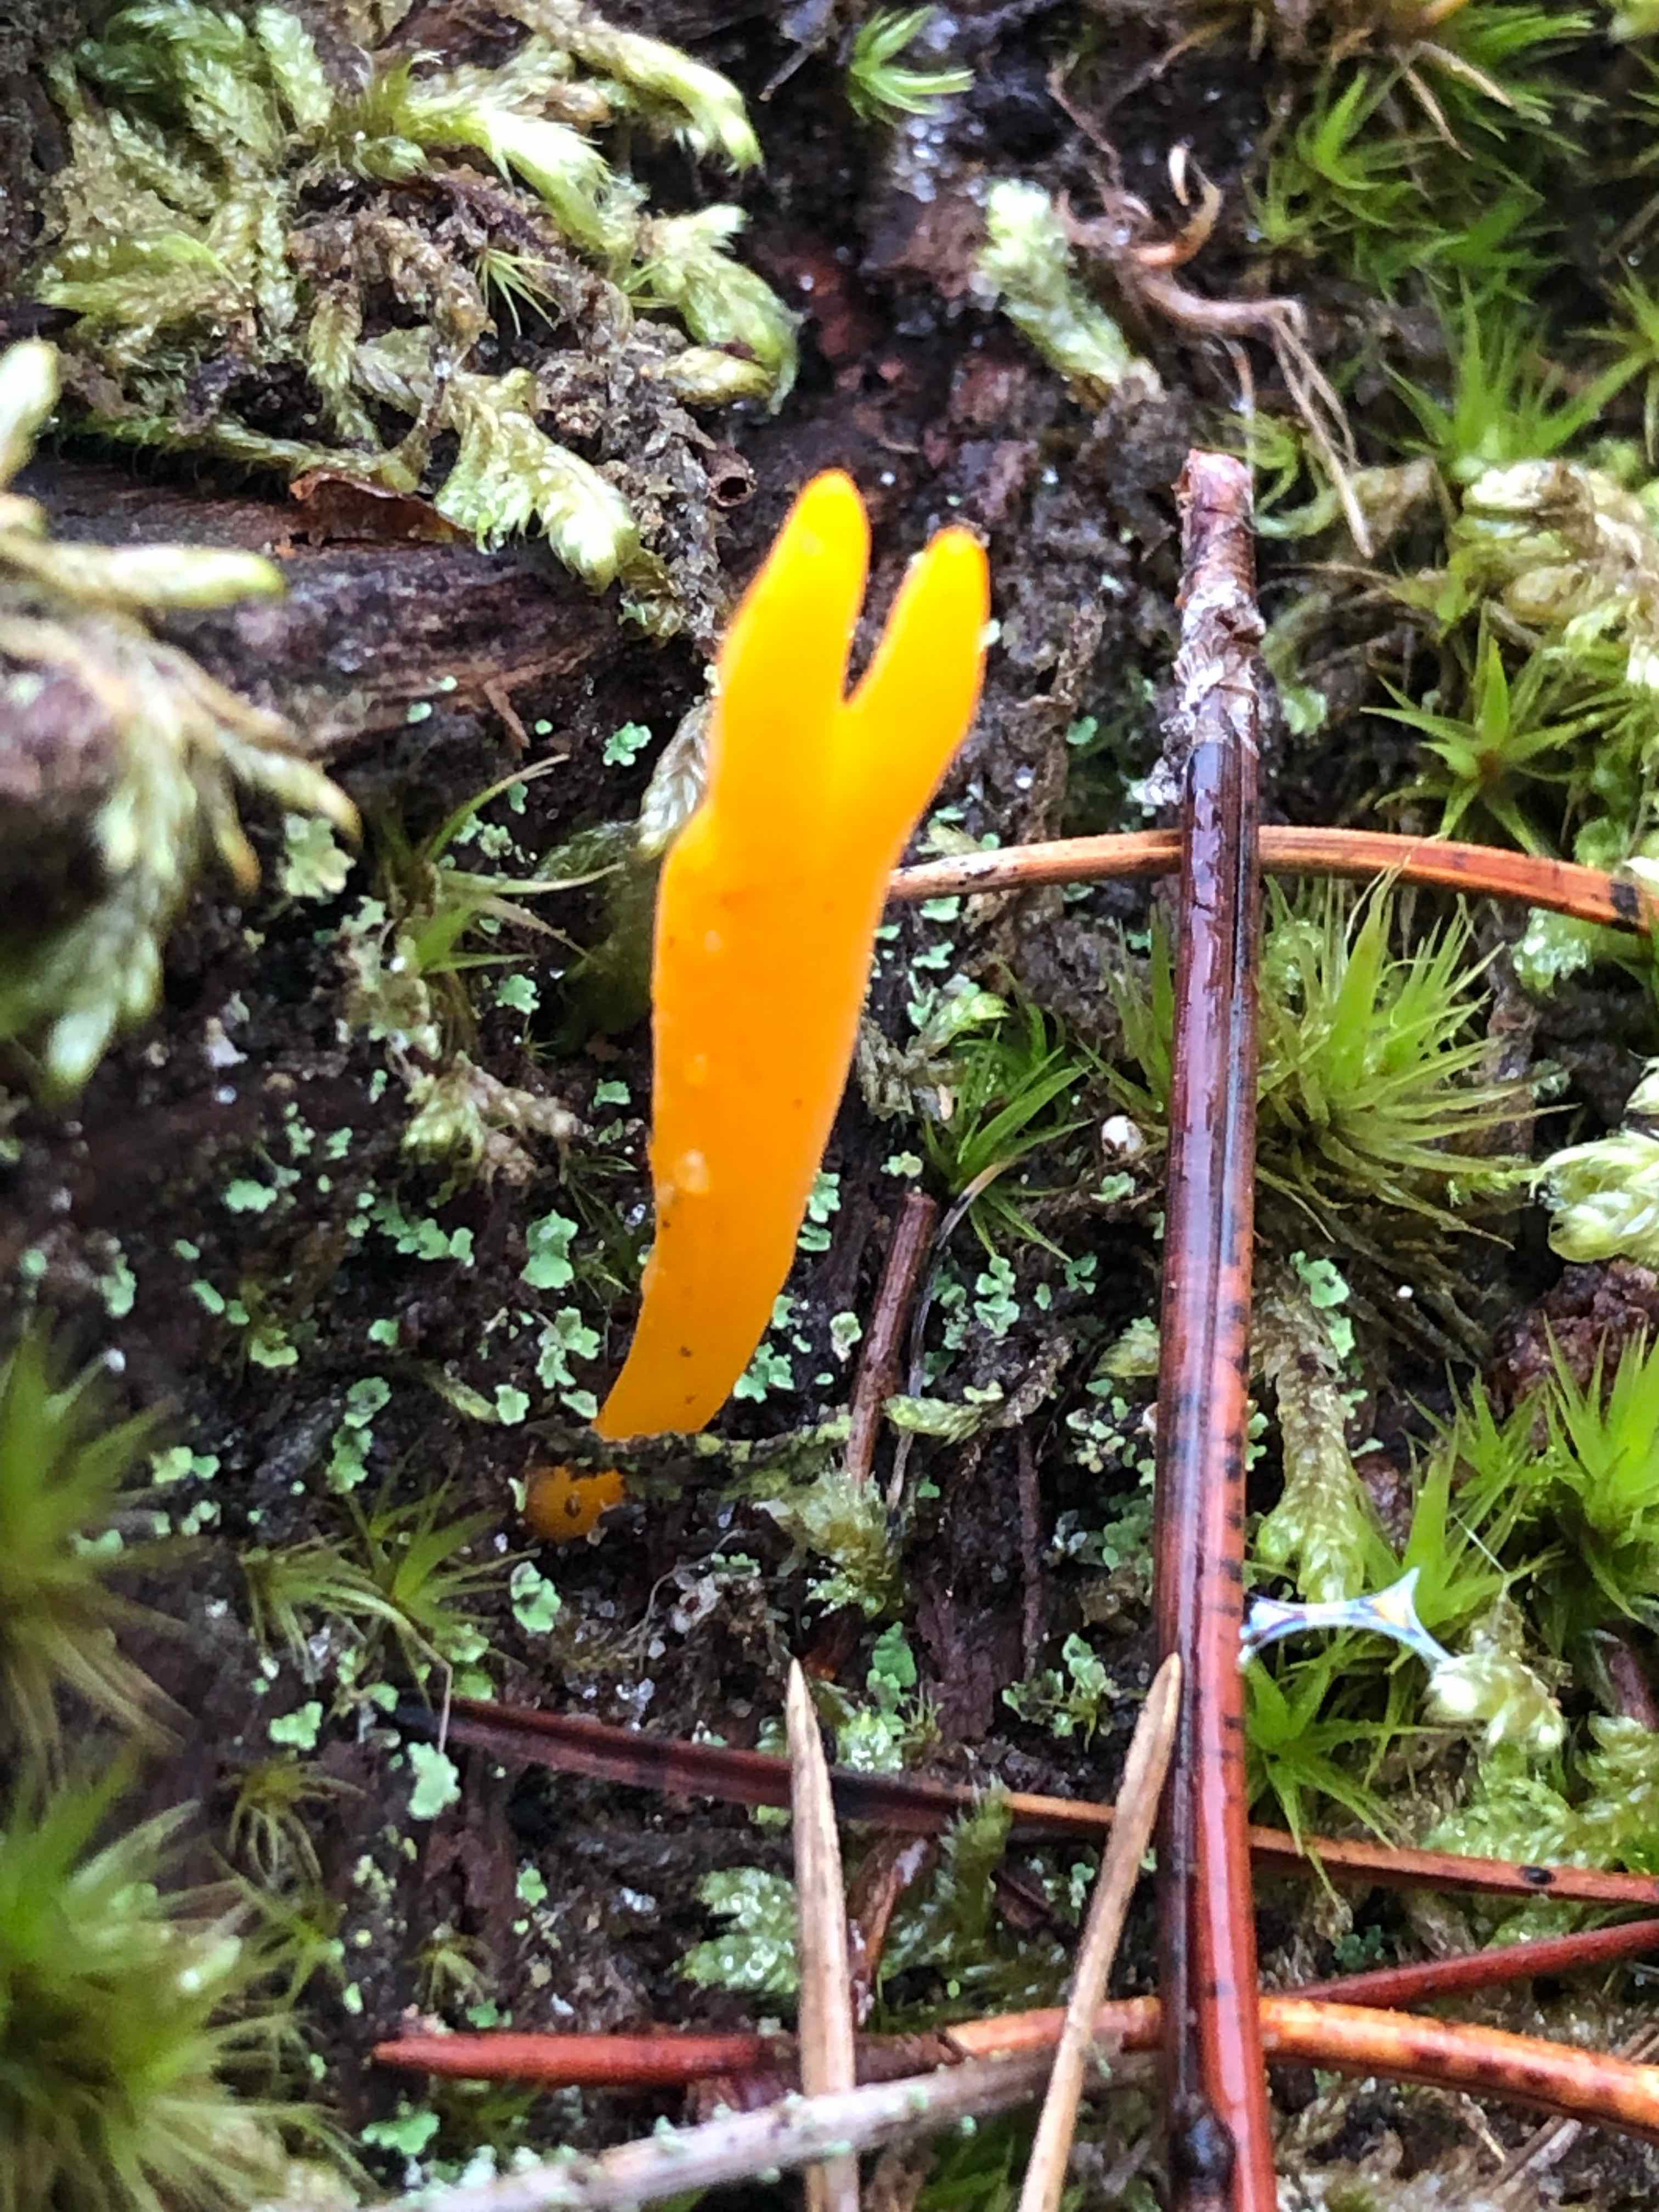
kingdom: Fungi
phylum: Basidiomycota
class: Dacrymycetes
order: Dacrymycetales
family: Dacrymycetaceae
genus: Calocera
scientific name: Calocera viscosa
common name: almindelig guldgaffel
